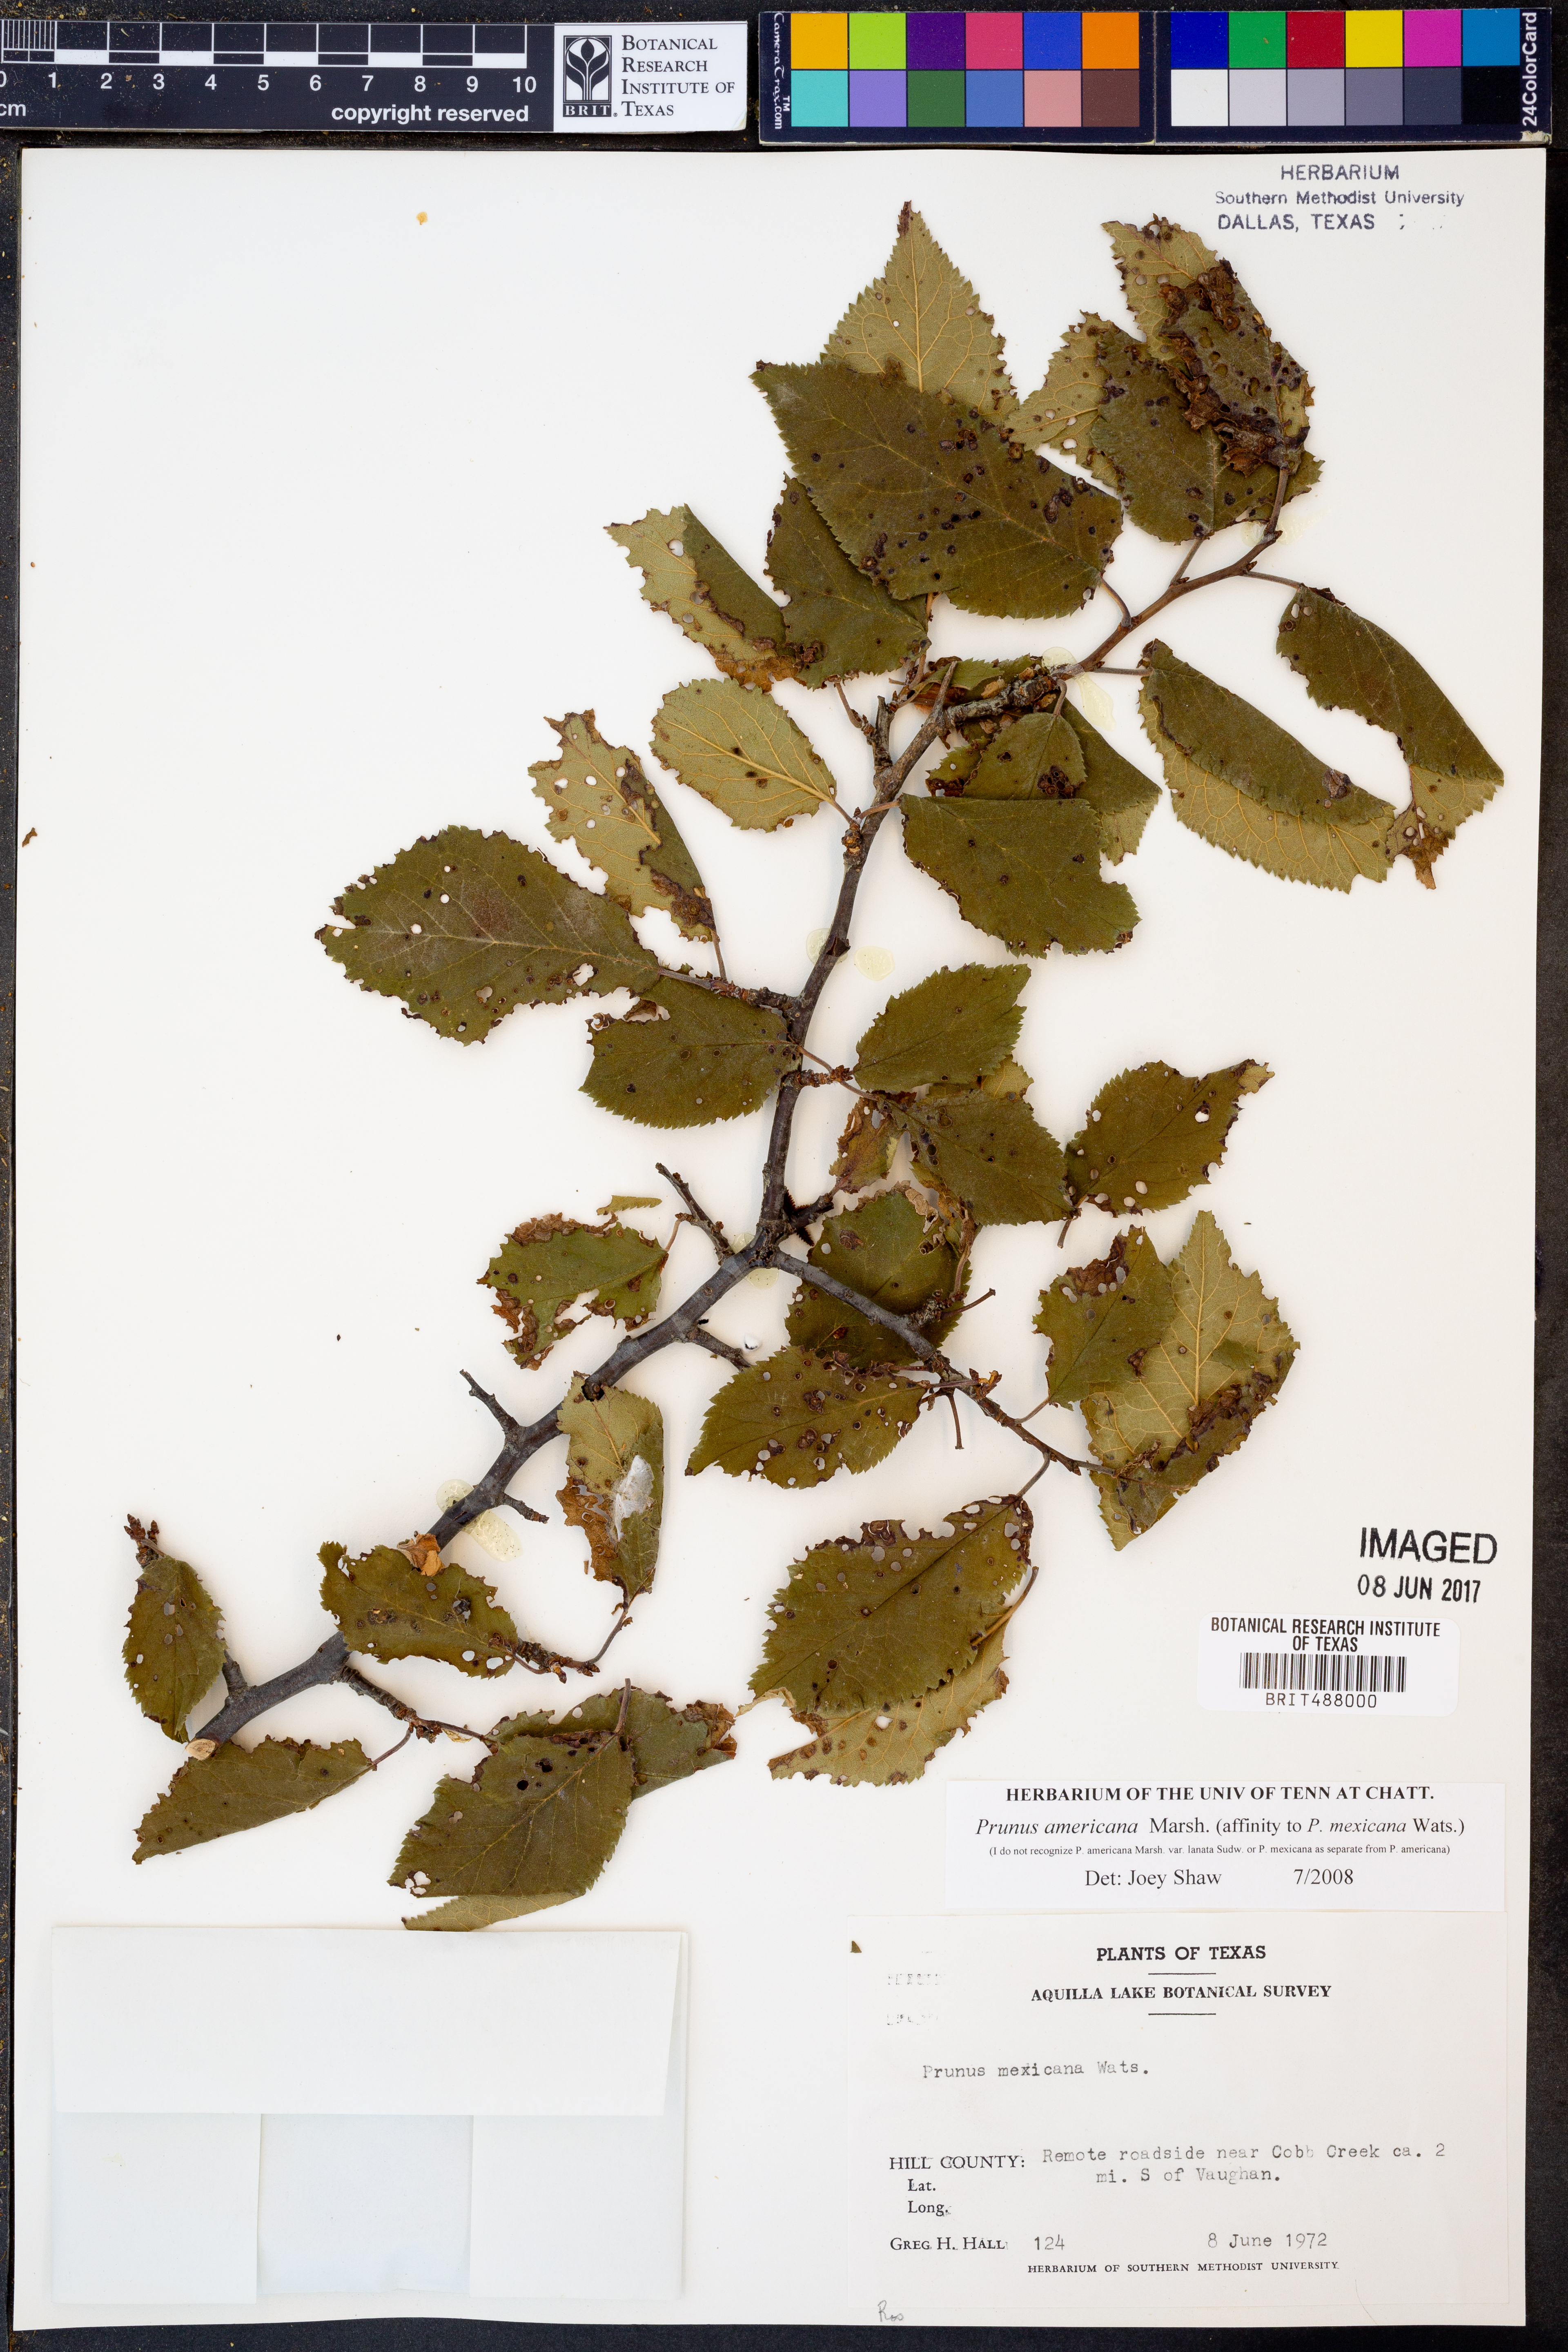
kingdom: Plantae
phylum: Tracheophyta
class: Magnoliopsida
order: Rosales
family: Rosaceae
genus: Prunus
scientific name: Prunus mexicana
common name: Mexican plum
